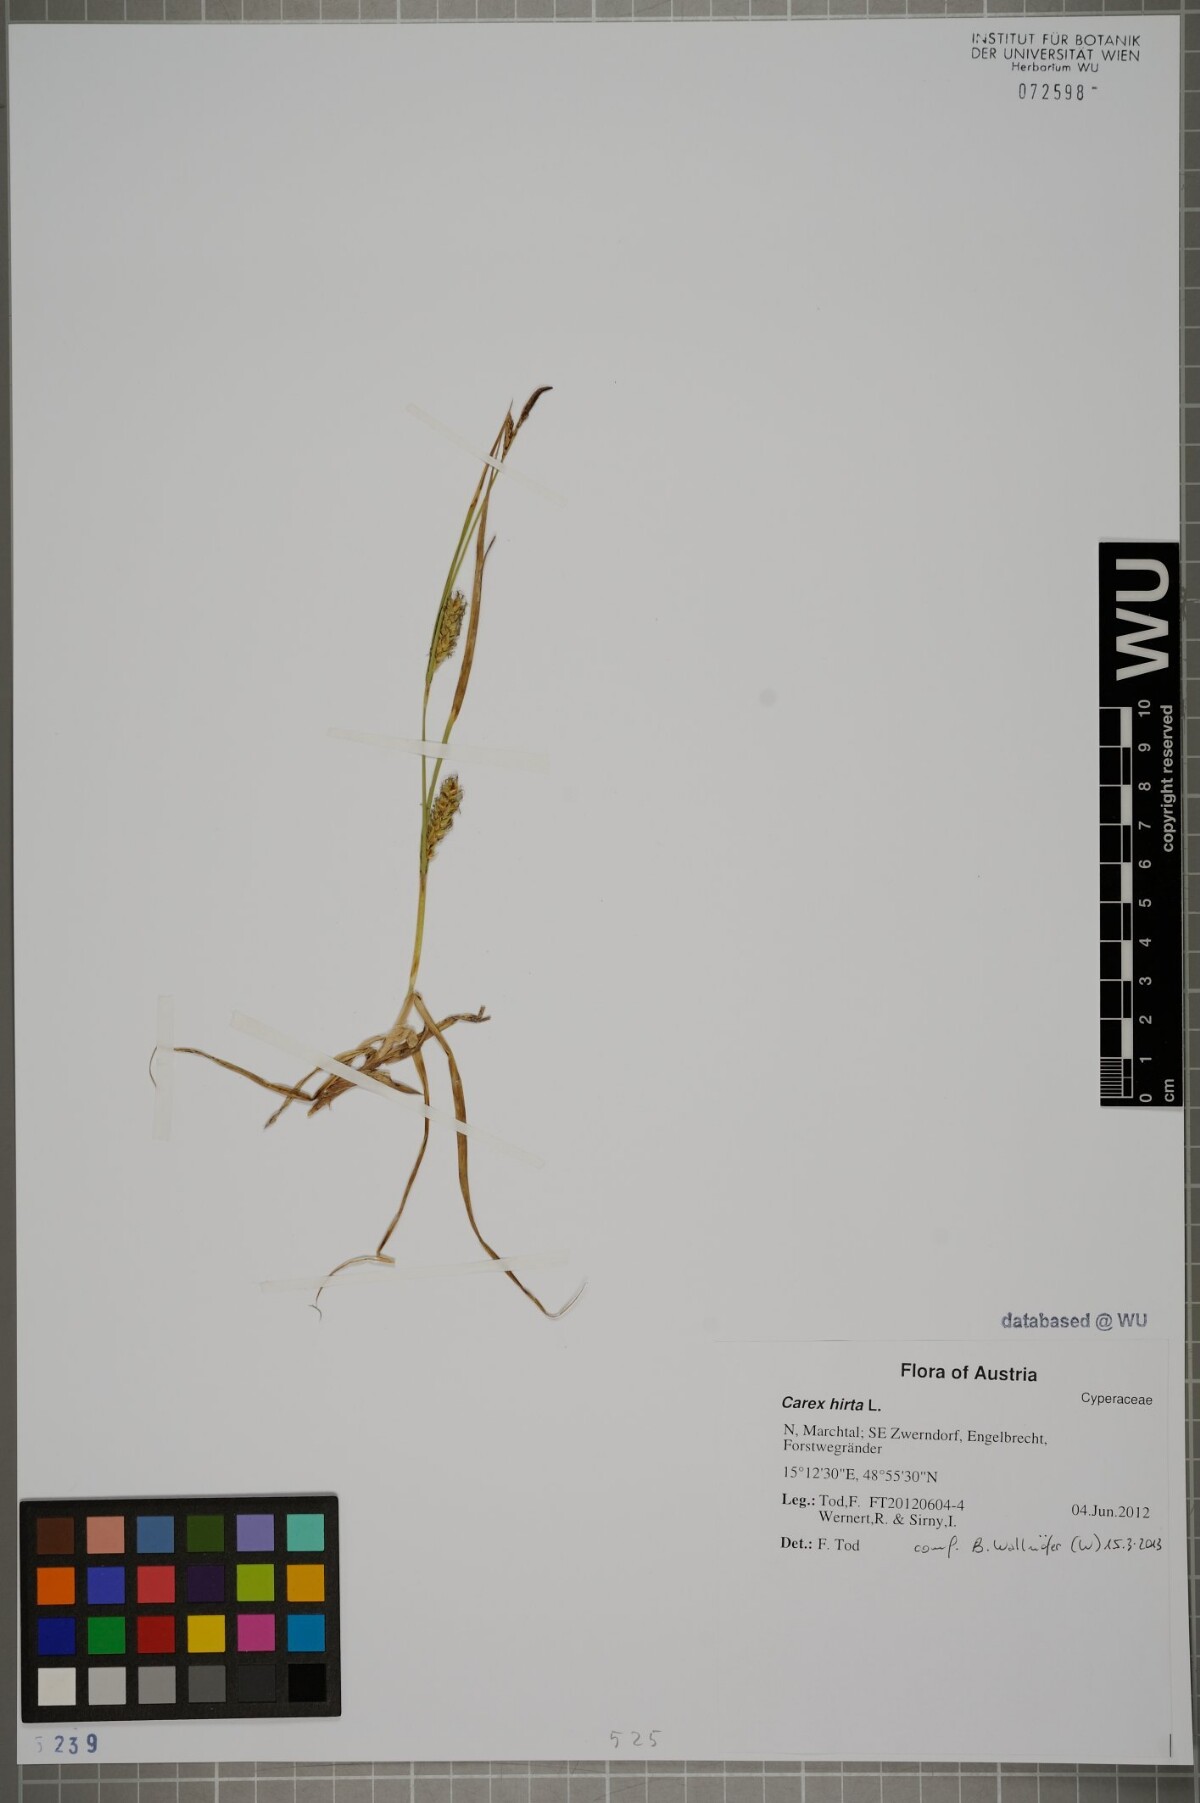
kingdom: Plantae
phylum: Tracheophyta
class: Liliopsida
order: Poales
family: Cyperaceae
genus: Carex
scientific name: Carex hirta
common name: Hairy sedge
